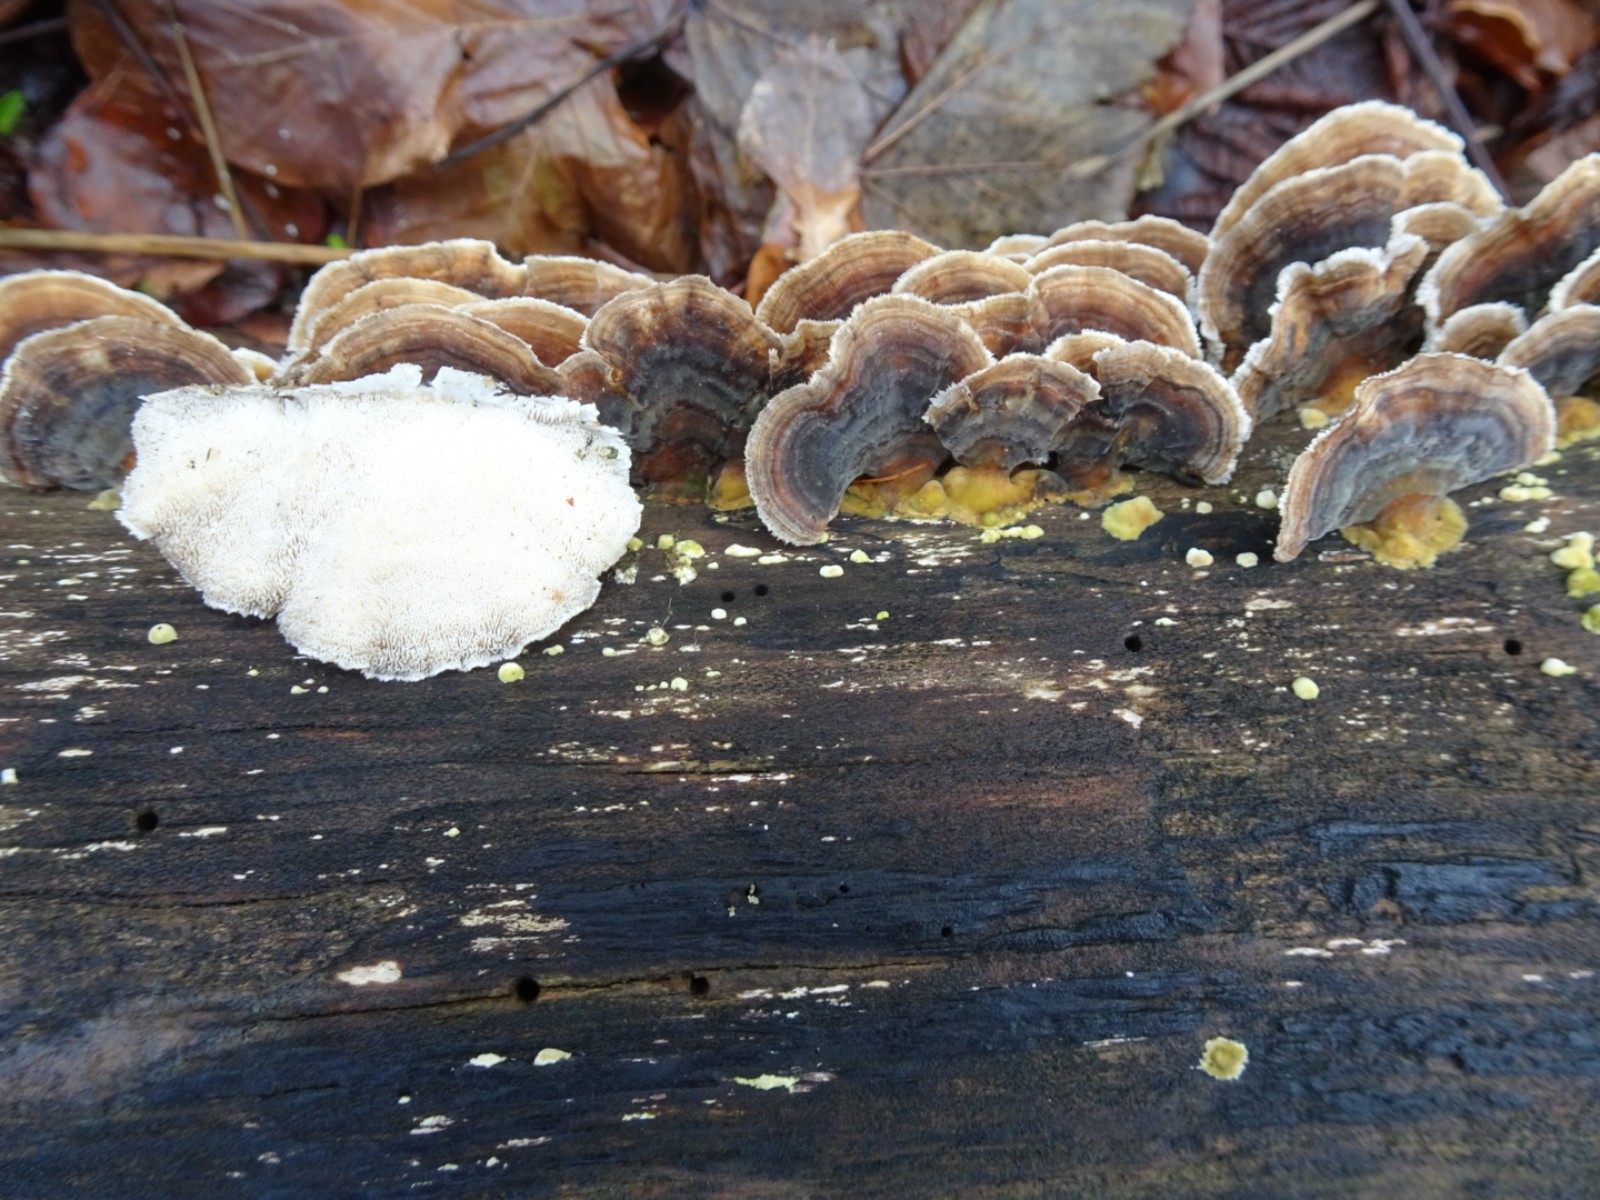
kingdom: Fungi
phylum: Basidiomycota
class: Agaricomycetes
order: Polyporales
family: Polyporaceae
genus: Trametes
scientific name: Trametes versicolor
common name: broget læderporesvamp
